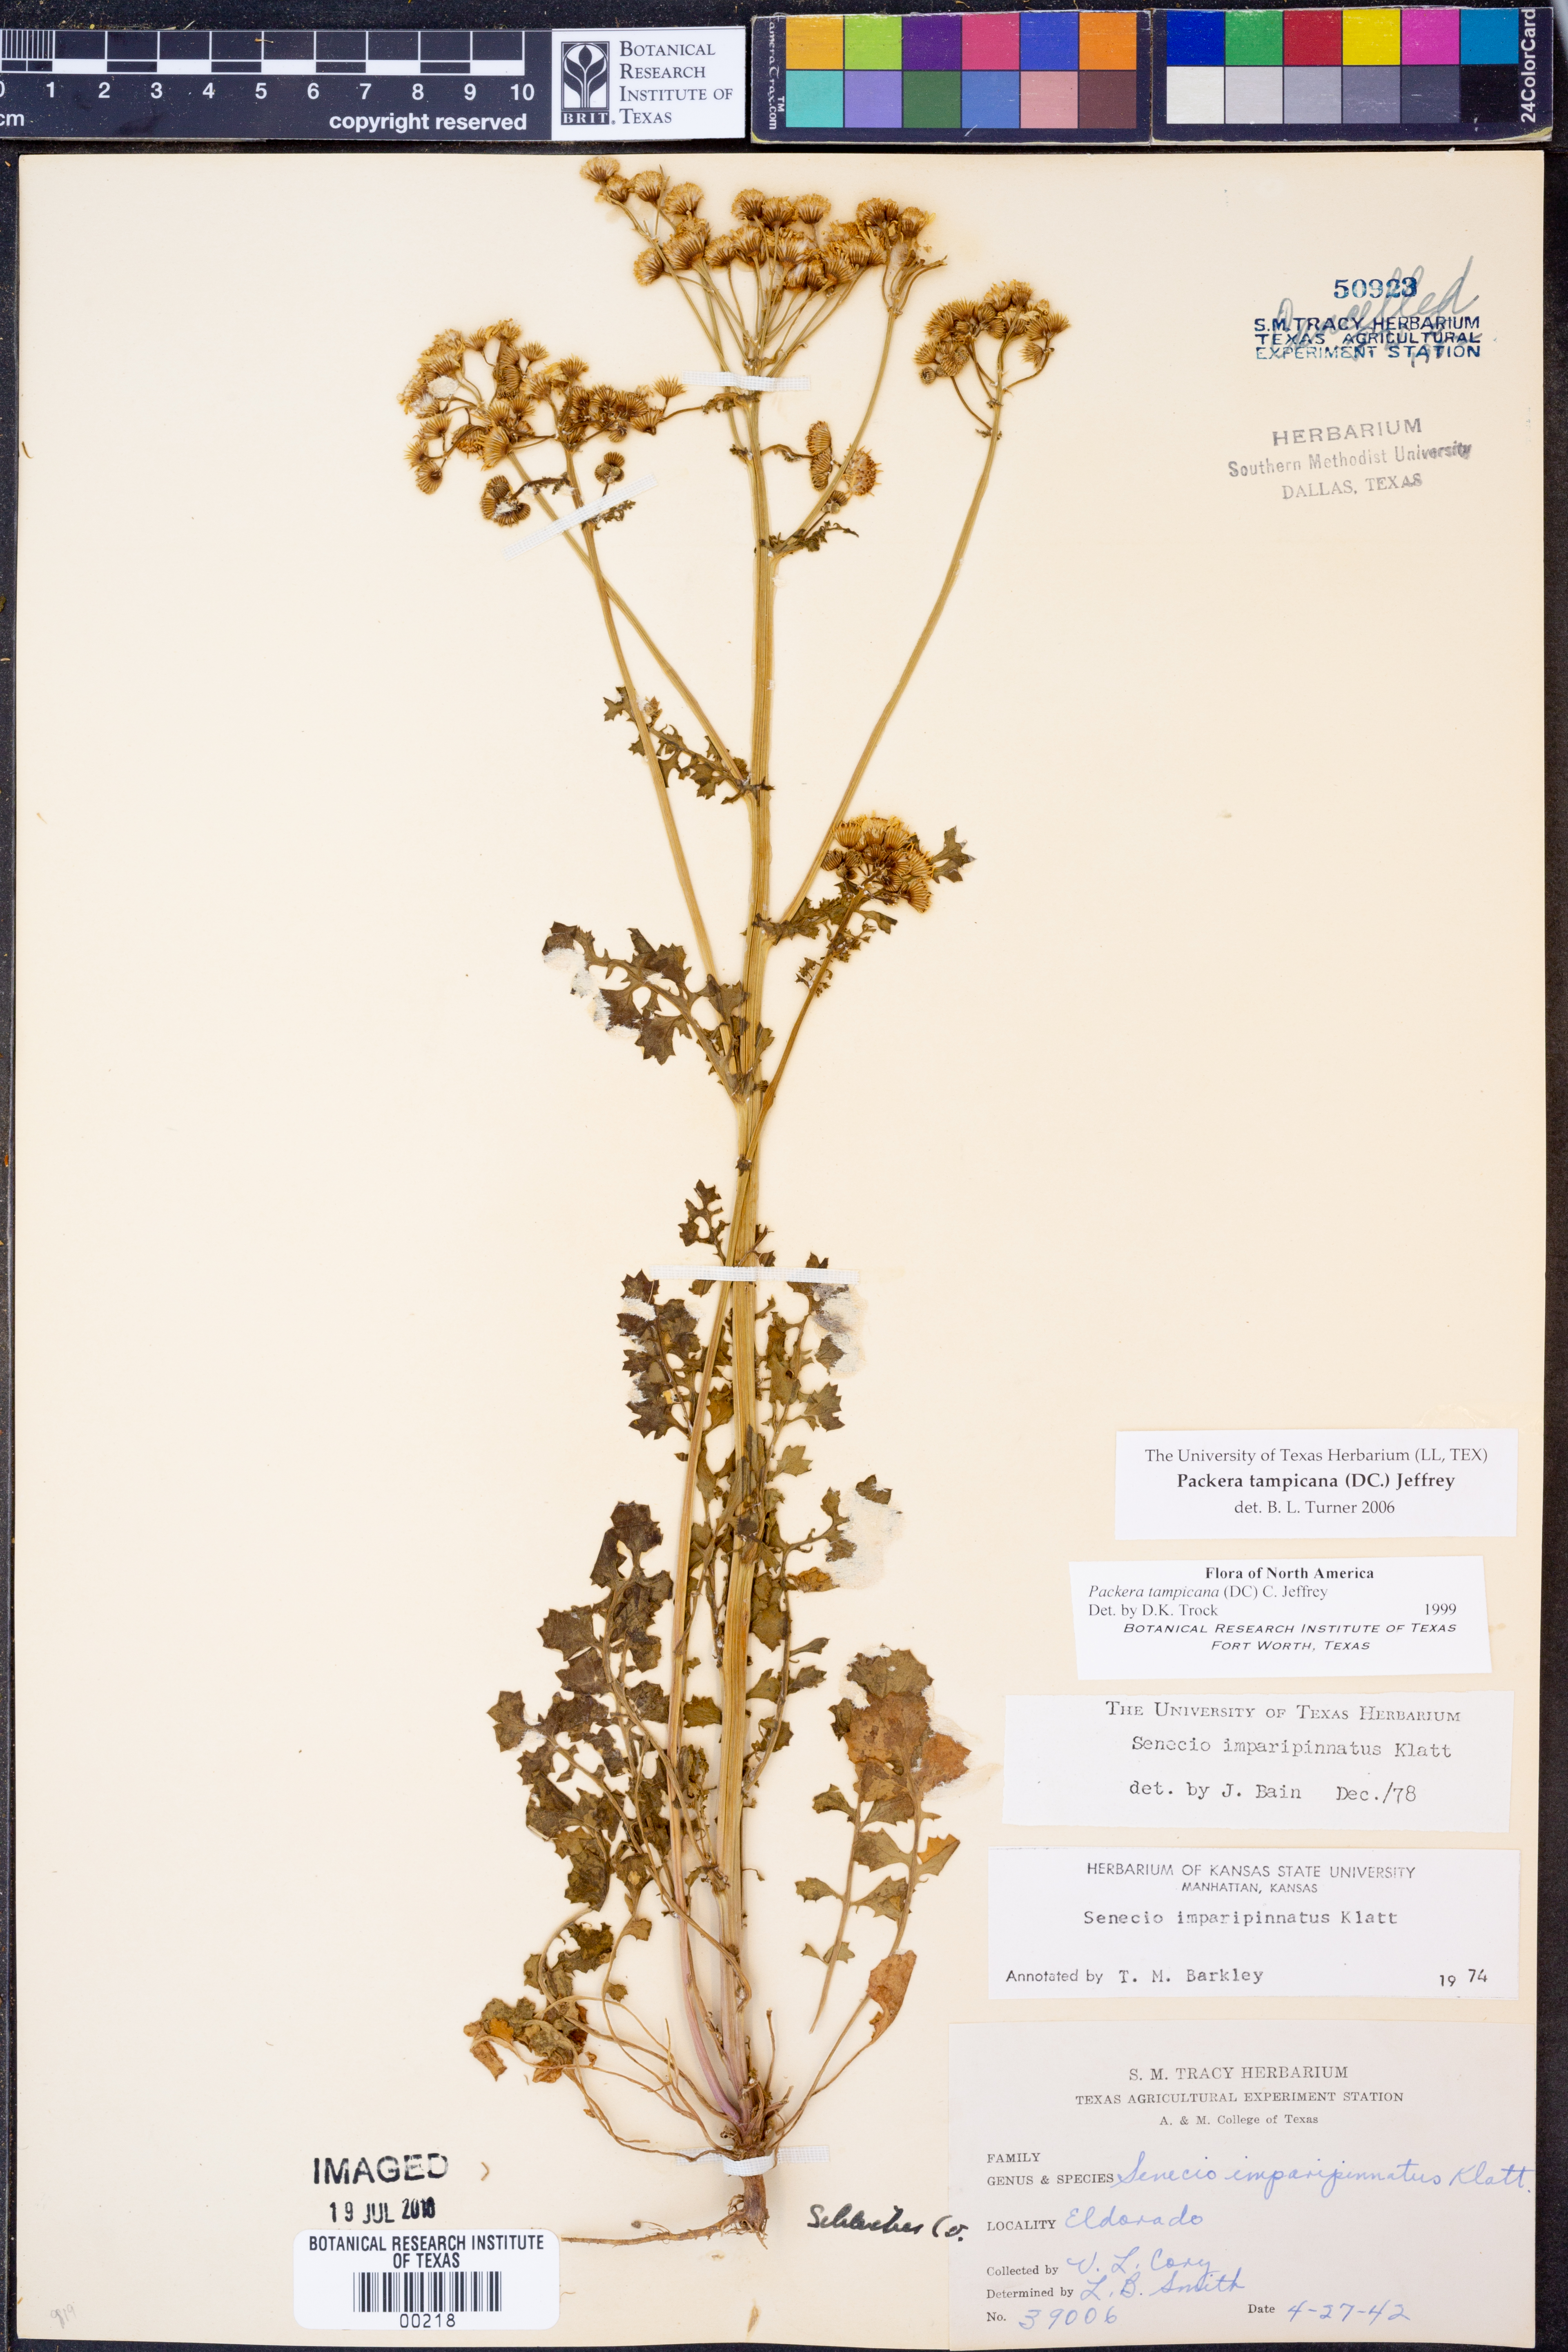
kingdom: Plantae
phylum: Tracheophyta
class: Magnoliopsida
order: Asterales
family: Asteraceae
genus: Packera
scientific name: Packera tampicana
